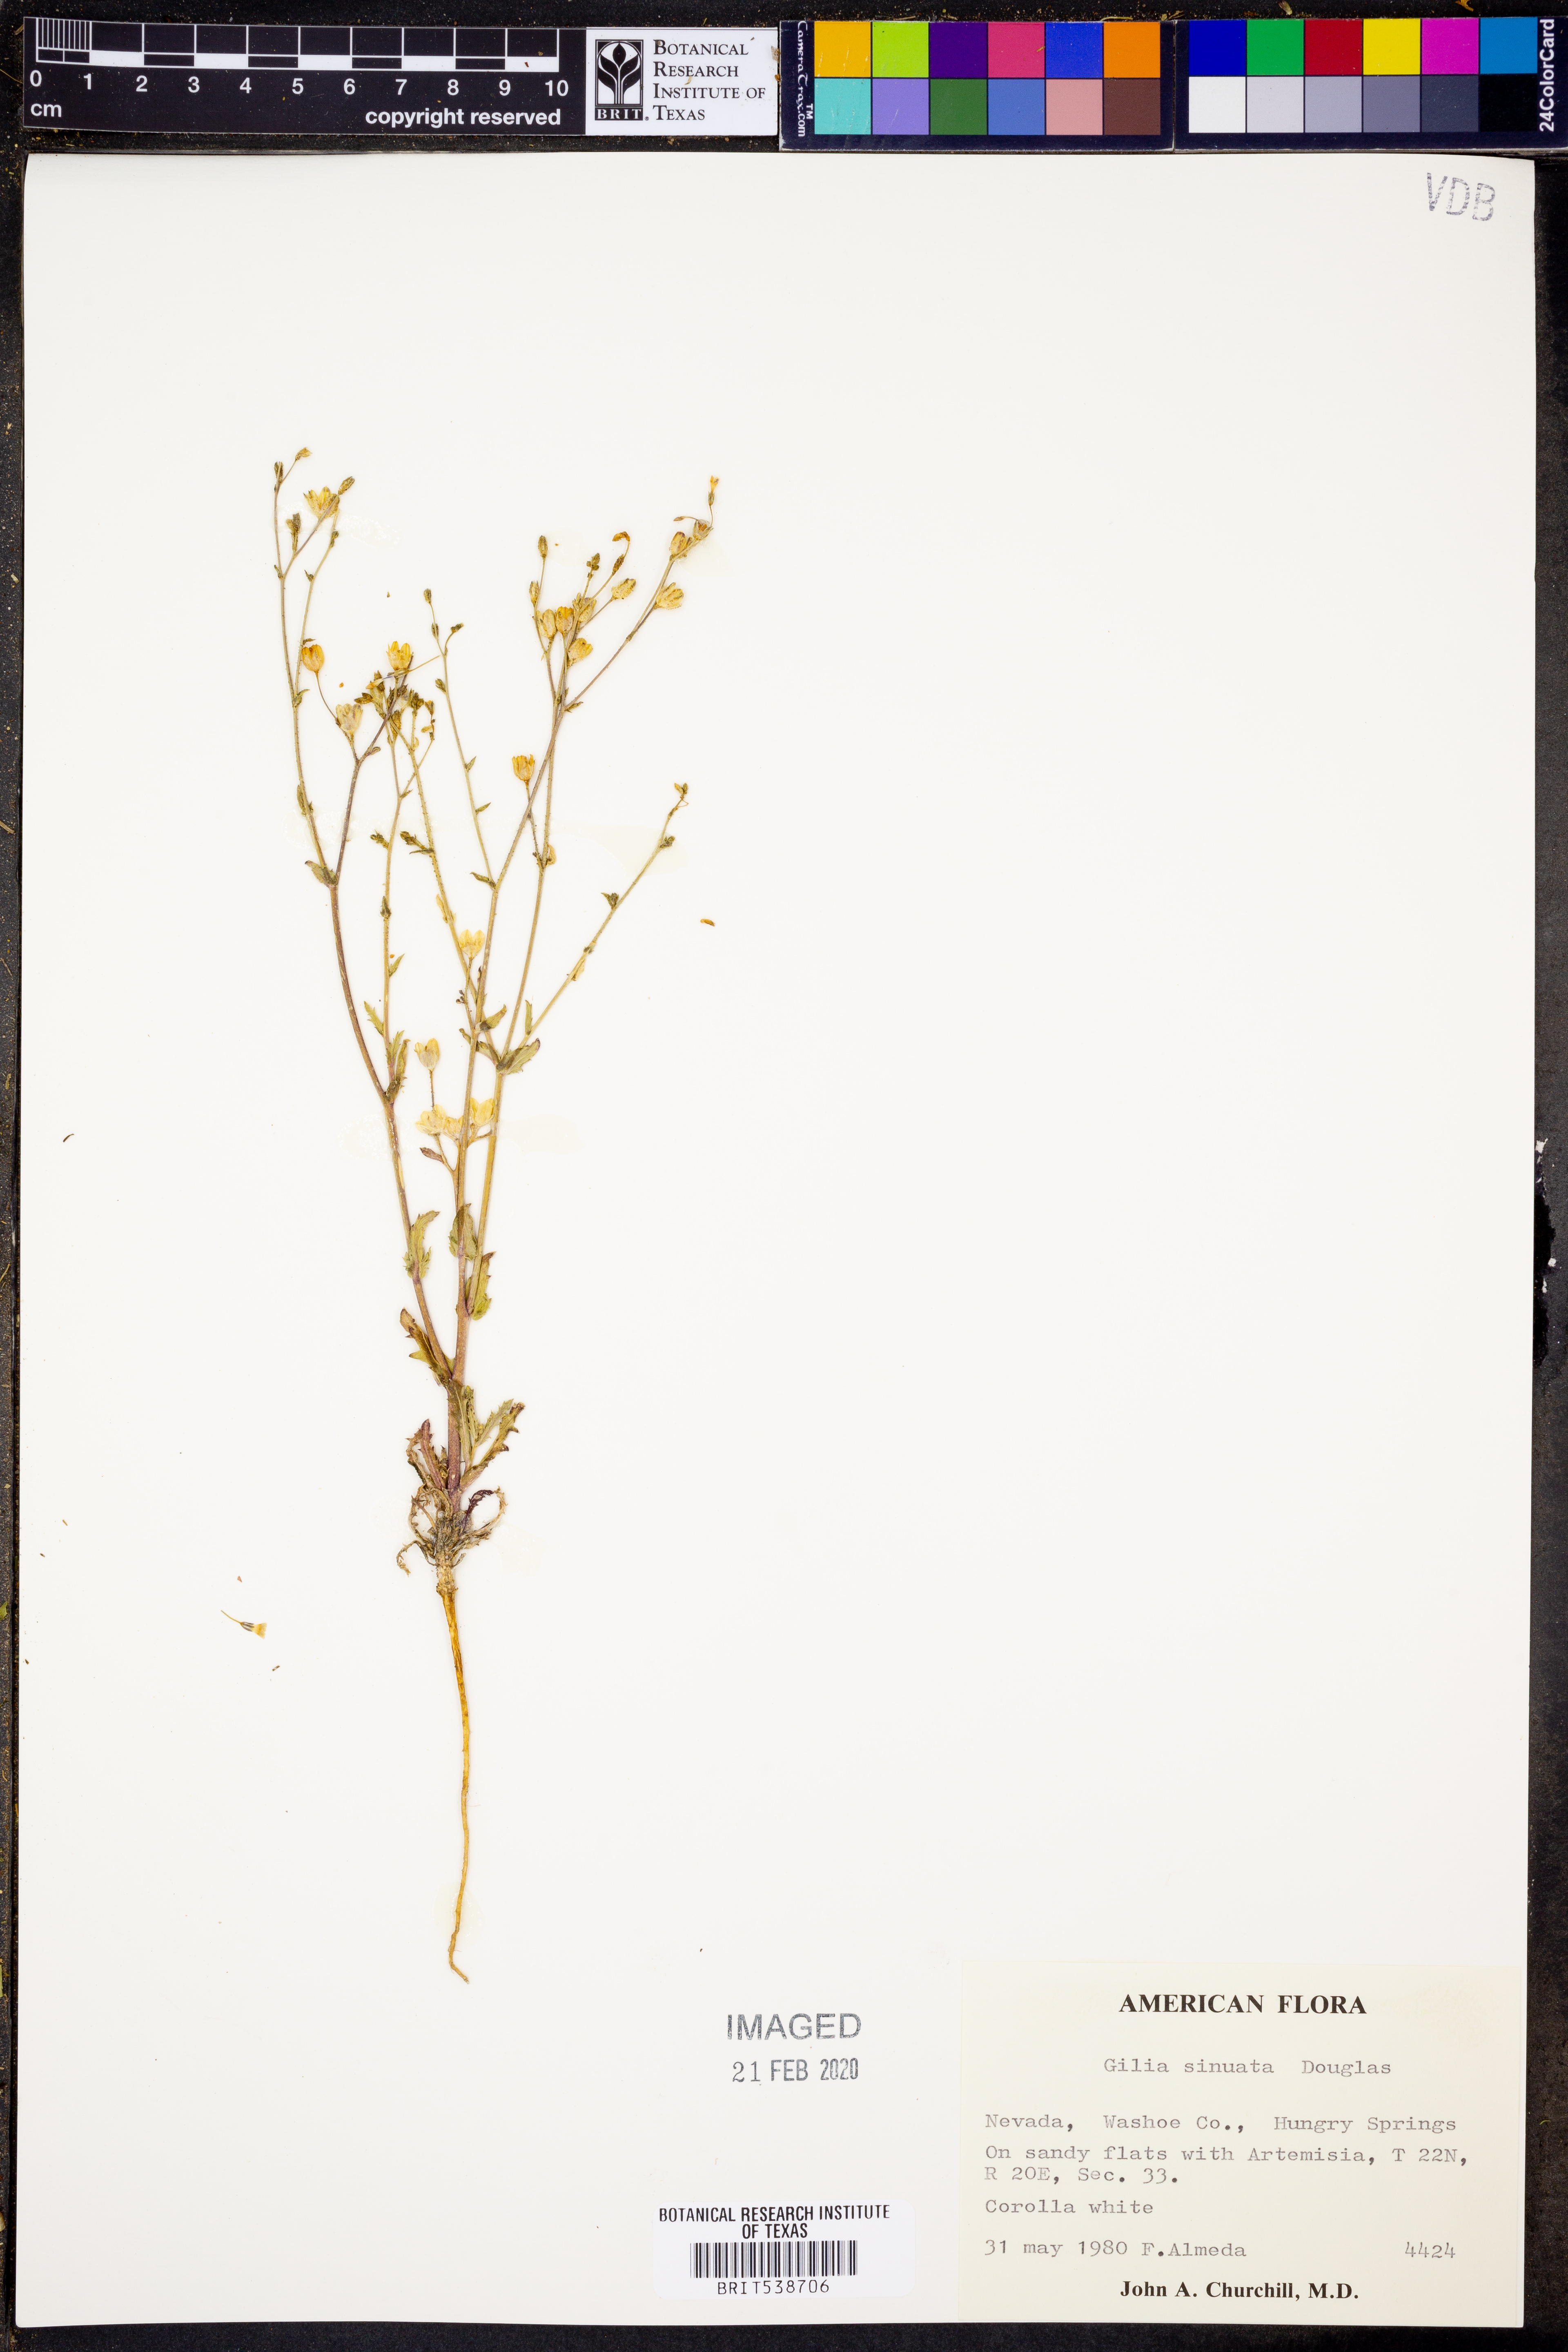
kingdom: Plantae
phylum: Tracheophyta
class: Magnoliopsida
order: Ericales
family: Polemoniaceae
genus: Gilia
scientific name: Gilia sinuata
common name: Rosy gilia
